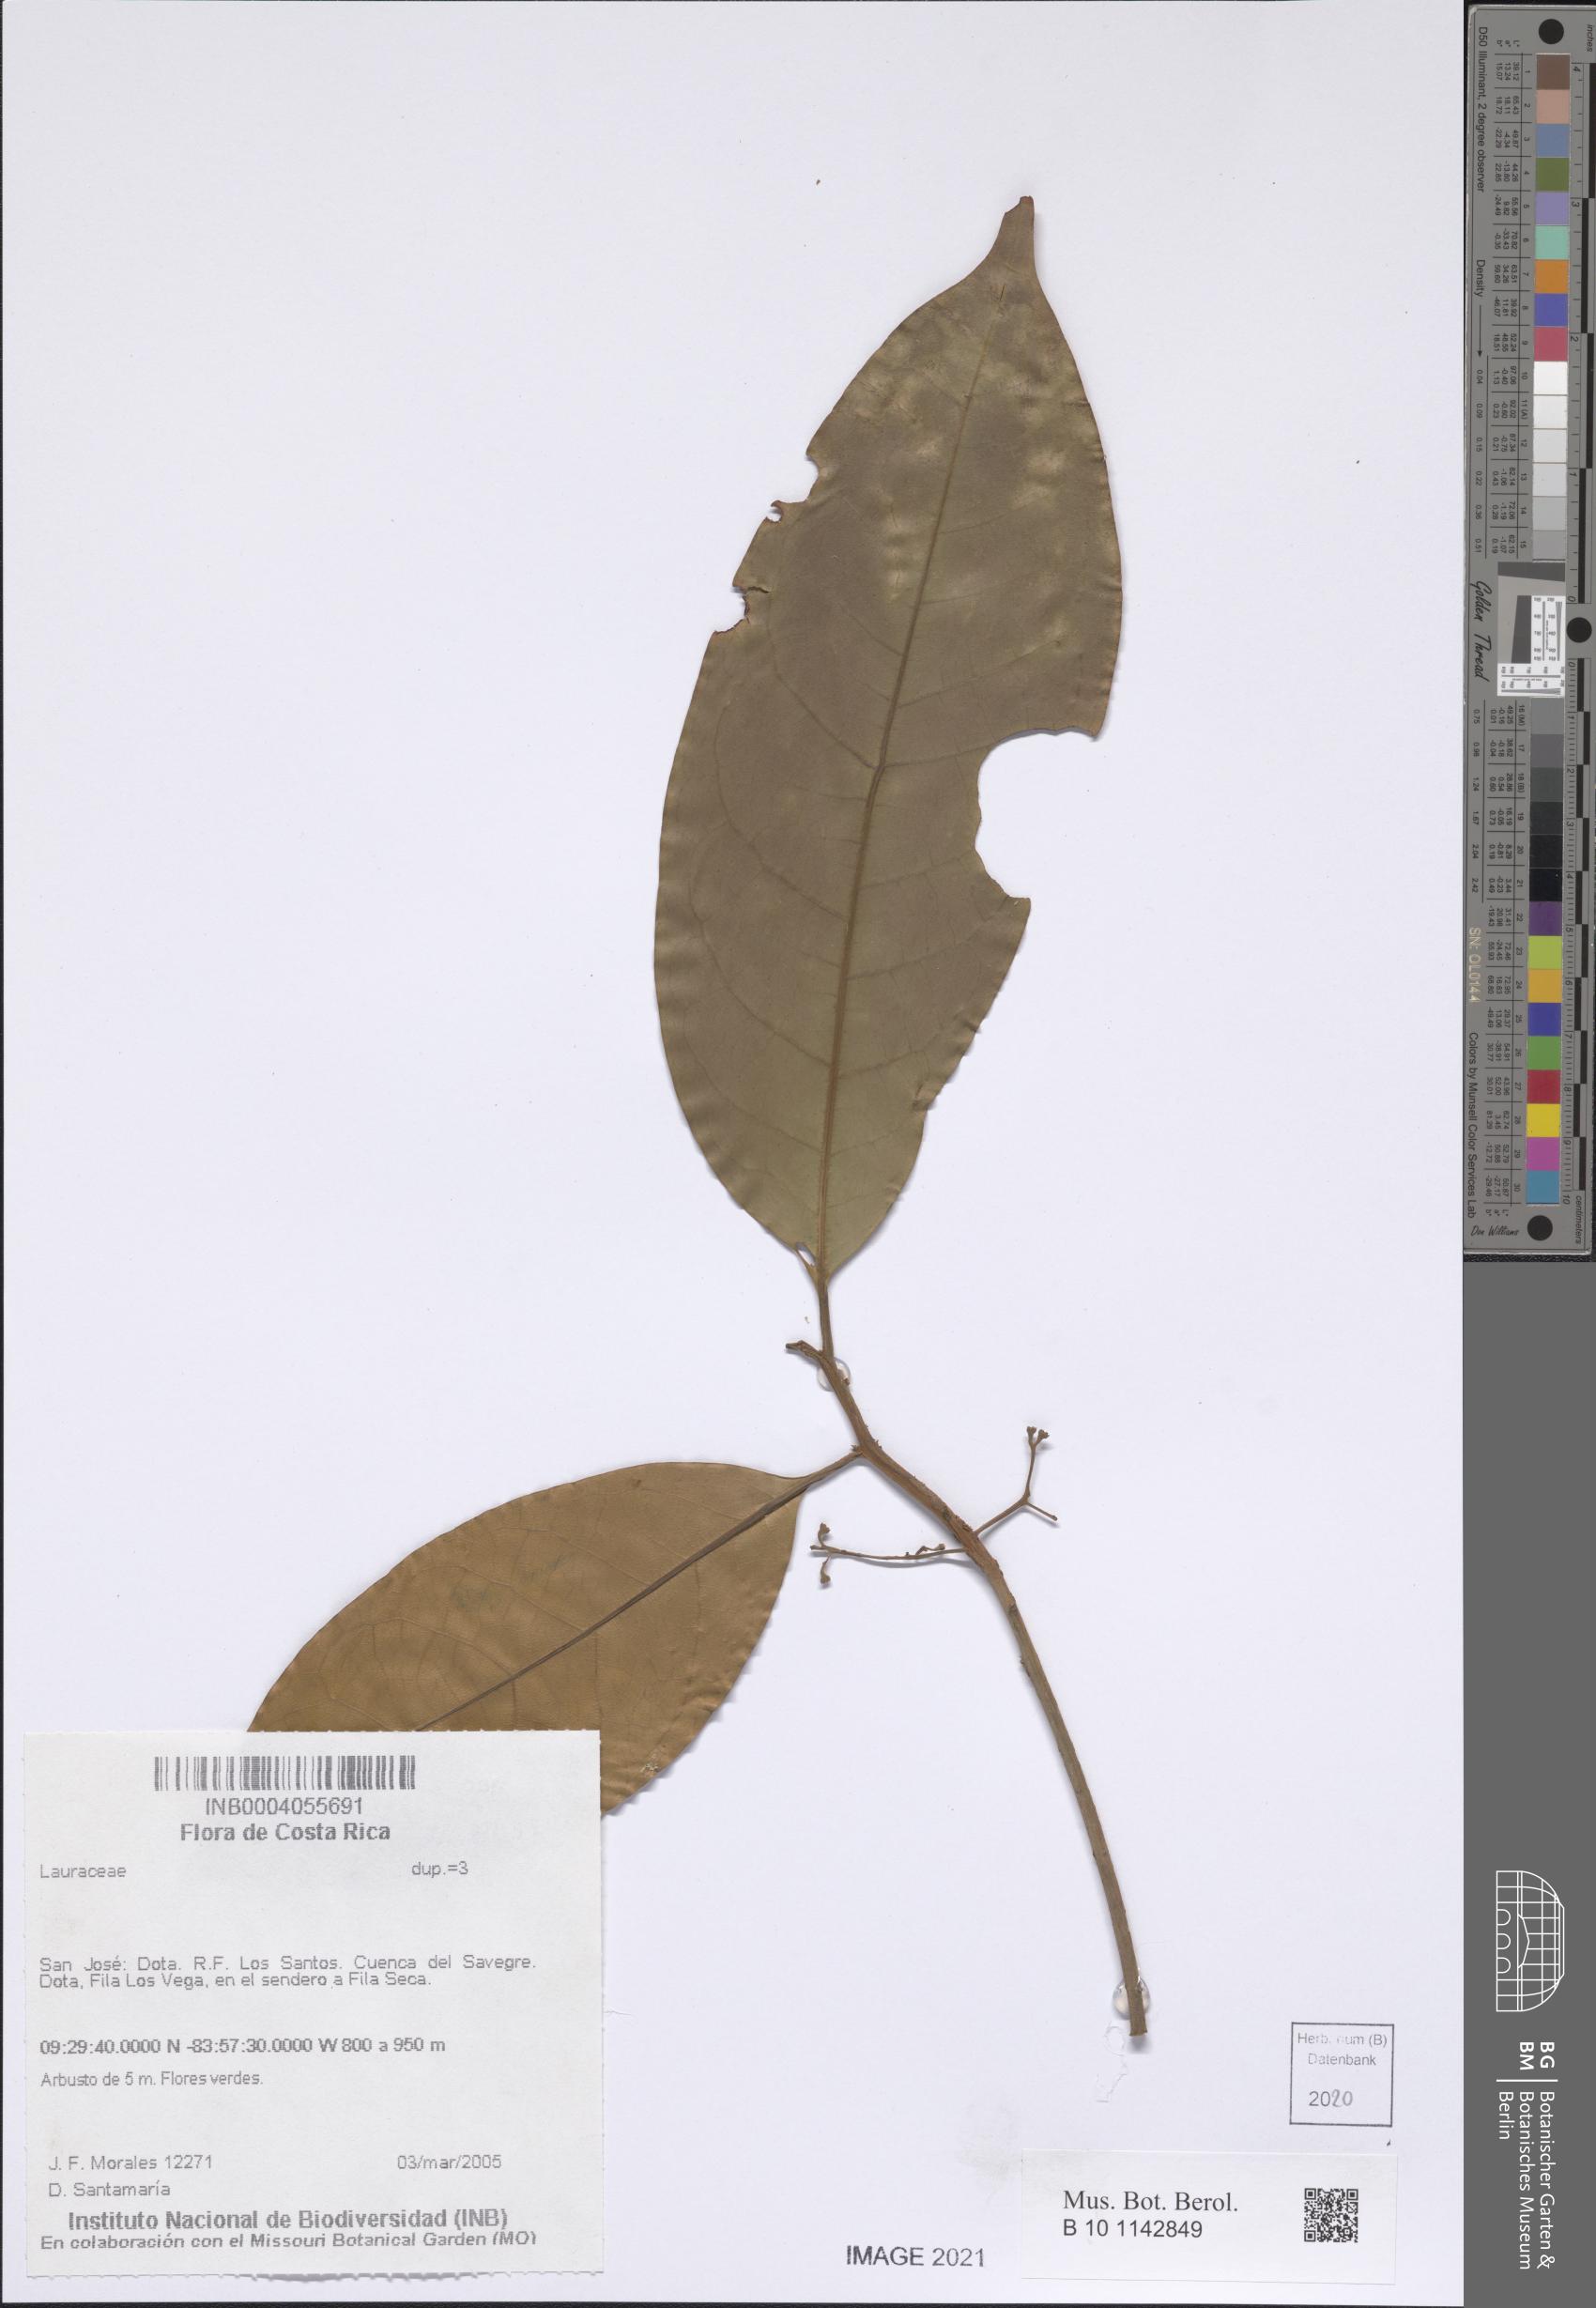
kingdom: Plantae
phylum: Tracheophyta
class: Magnoliopsida
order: Laurales
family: Lauraceae
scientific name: Lauraceae
